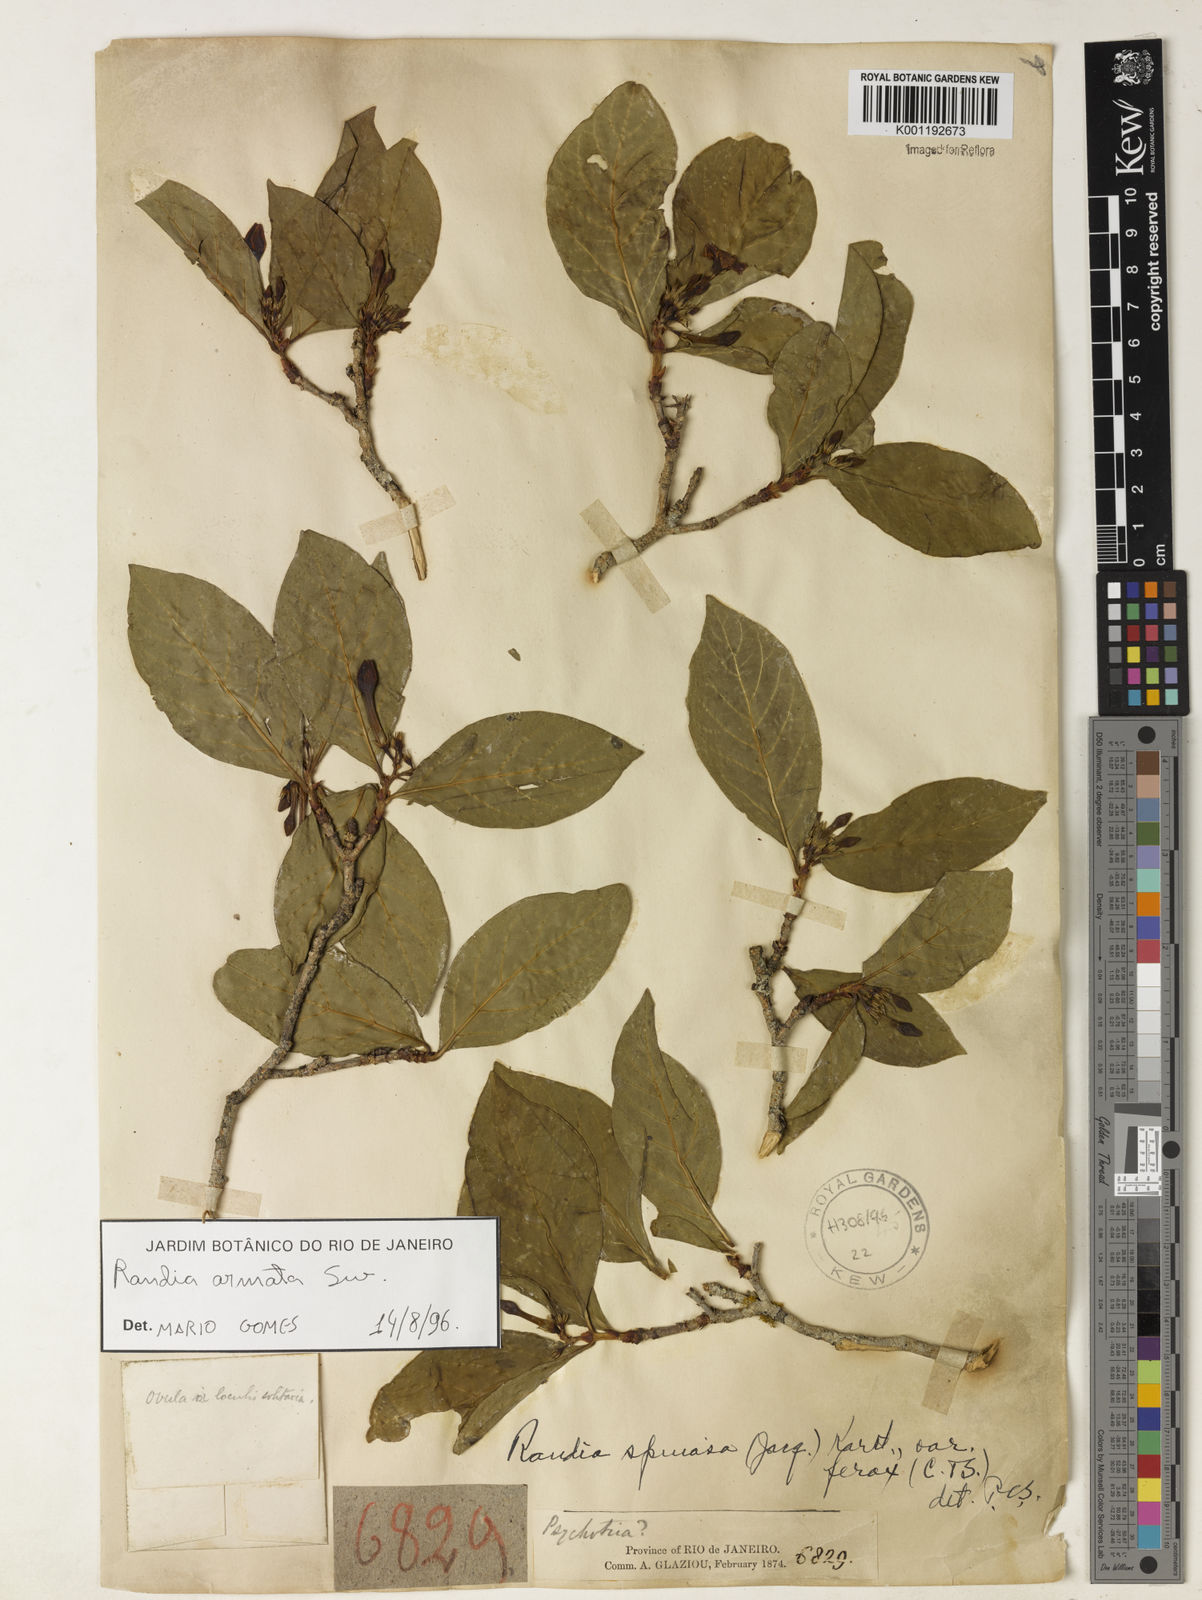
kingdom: Plantae
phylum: Tracheophyta
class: Magnoliopsida
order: Gentianales
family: Rubiaceae
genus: Randia
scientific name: Randia armata
